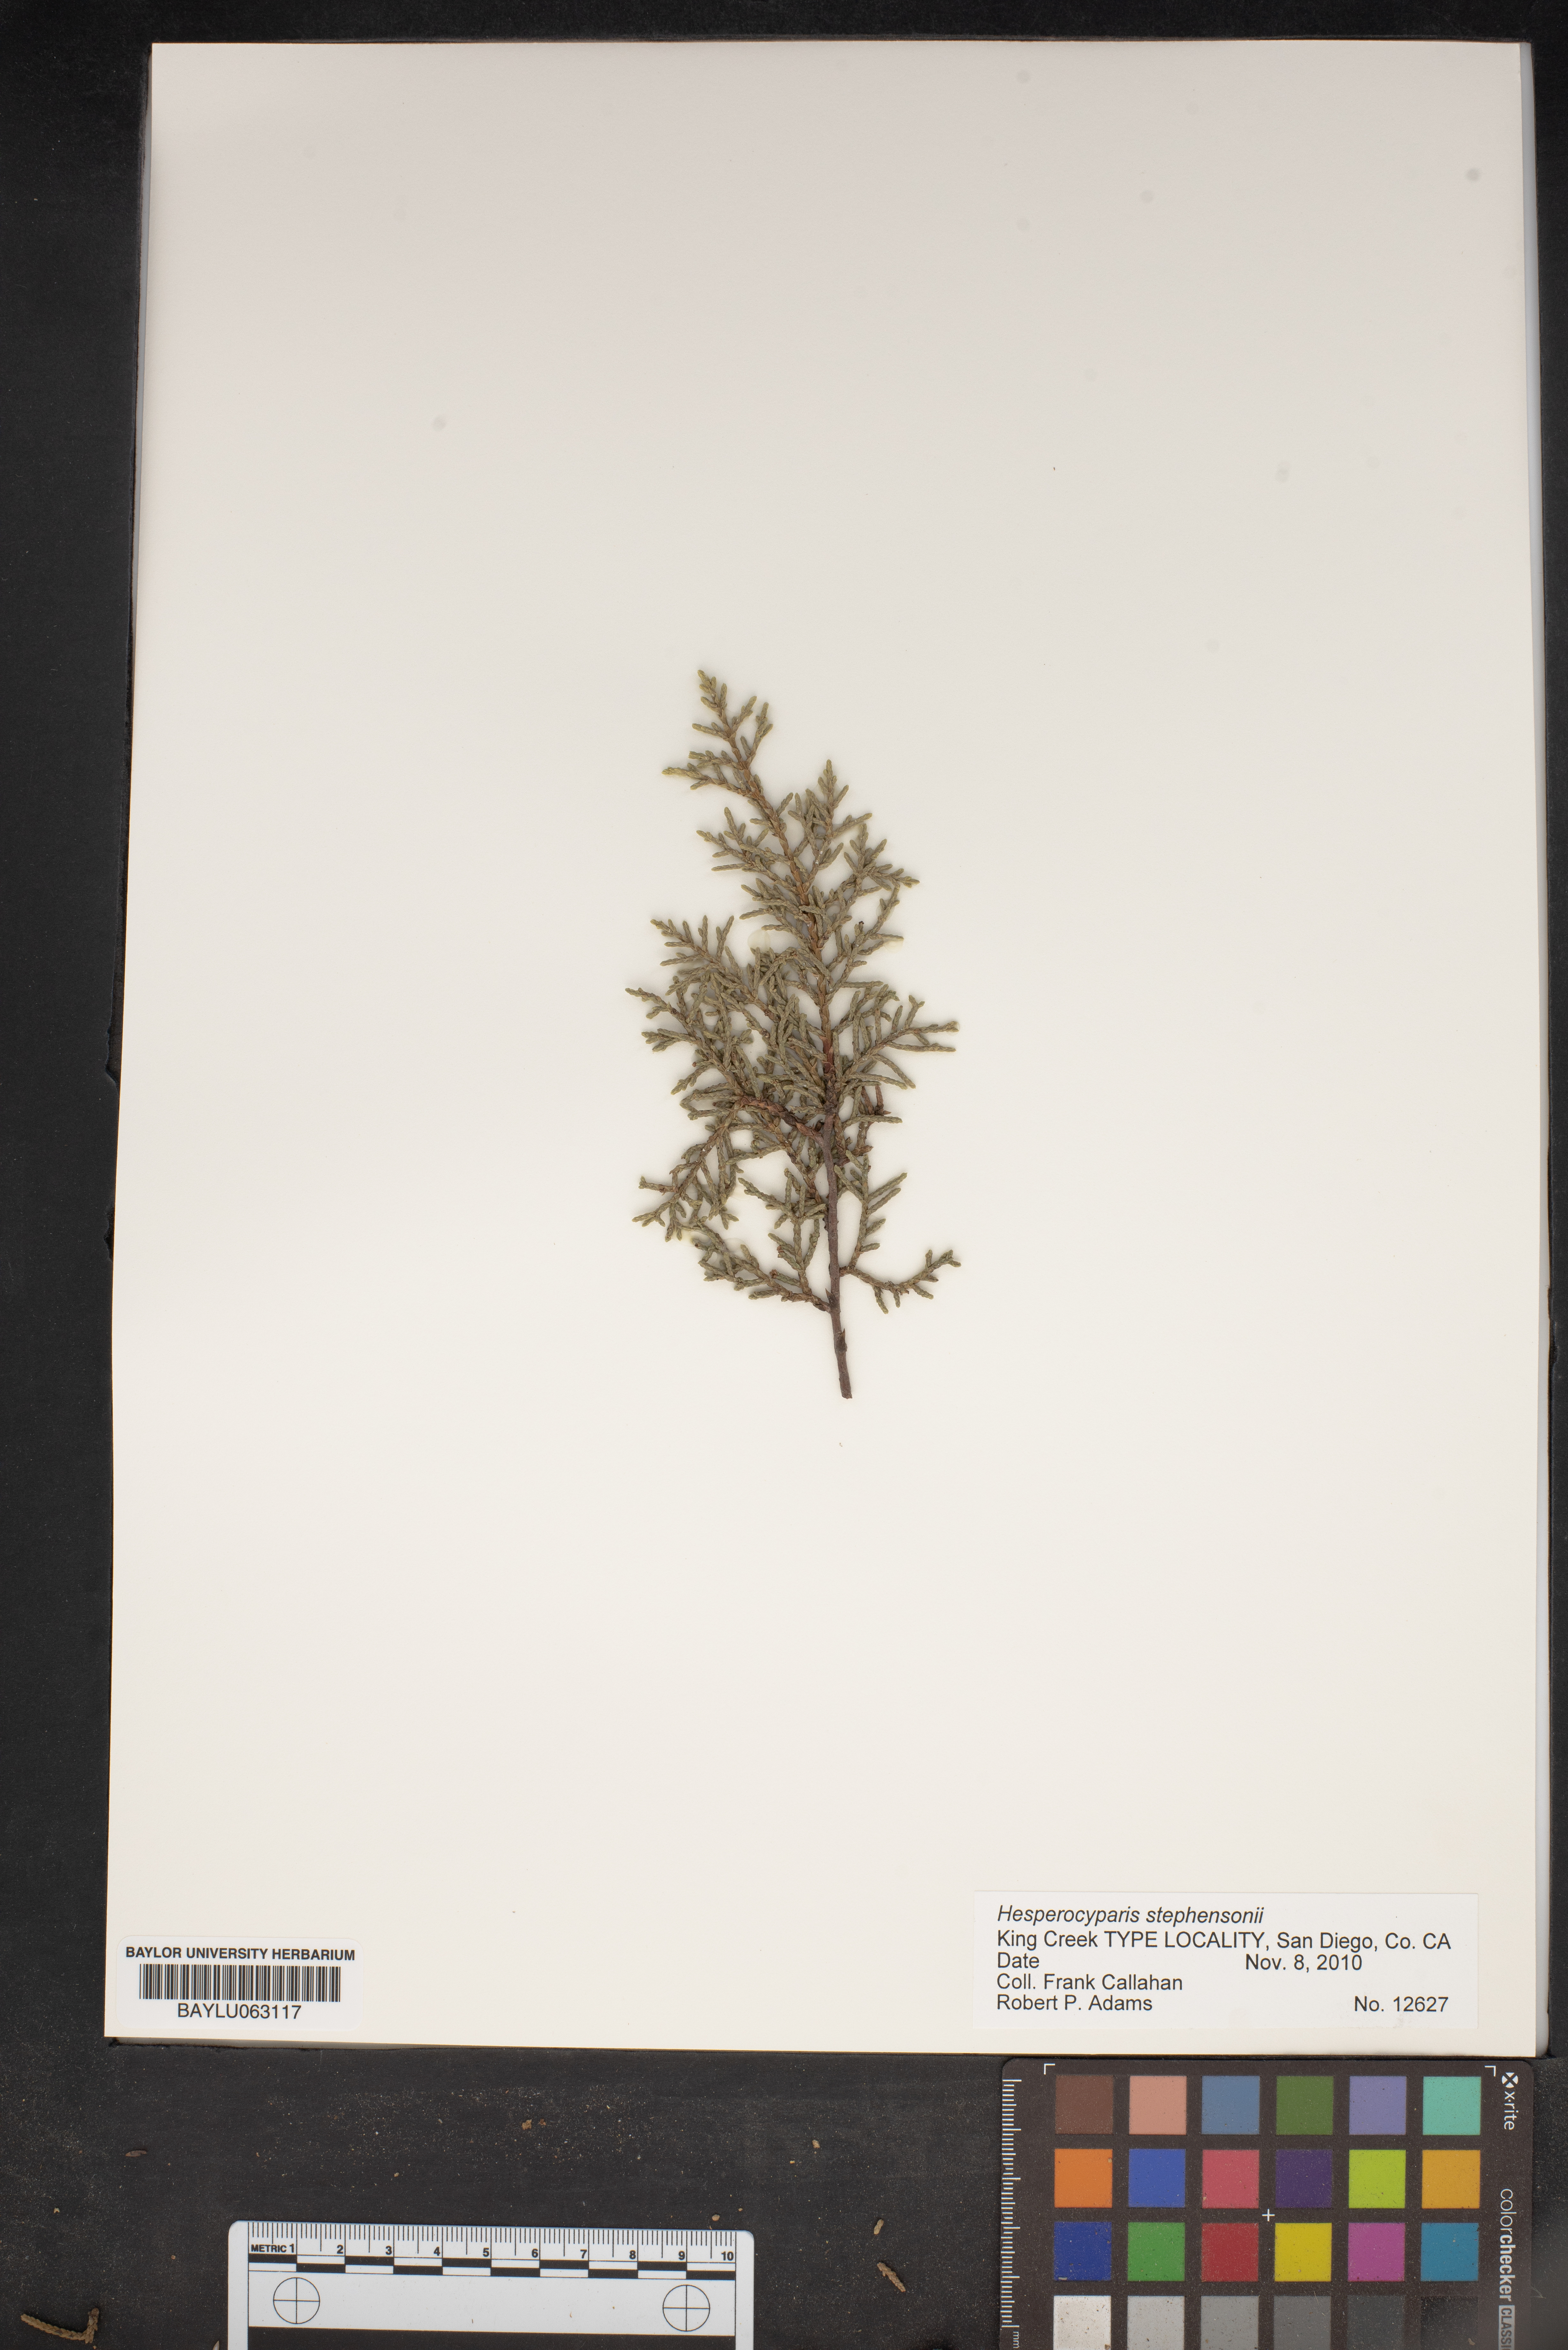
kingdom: Plantae
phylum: Tracheophyta
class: Pinopsida
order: Pinales
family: Cupressaceae
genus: Cupressus
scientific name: Cupressus arizonica
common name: Arizona cypress
